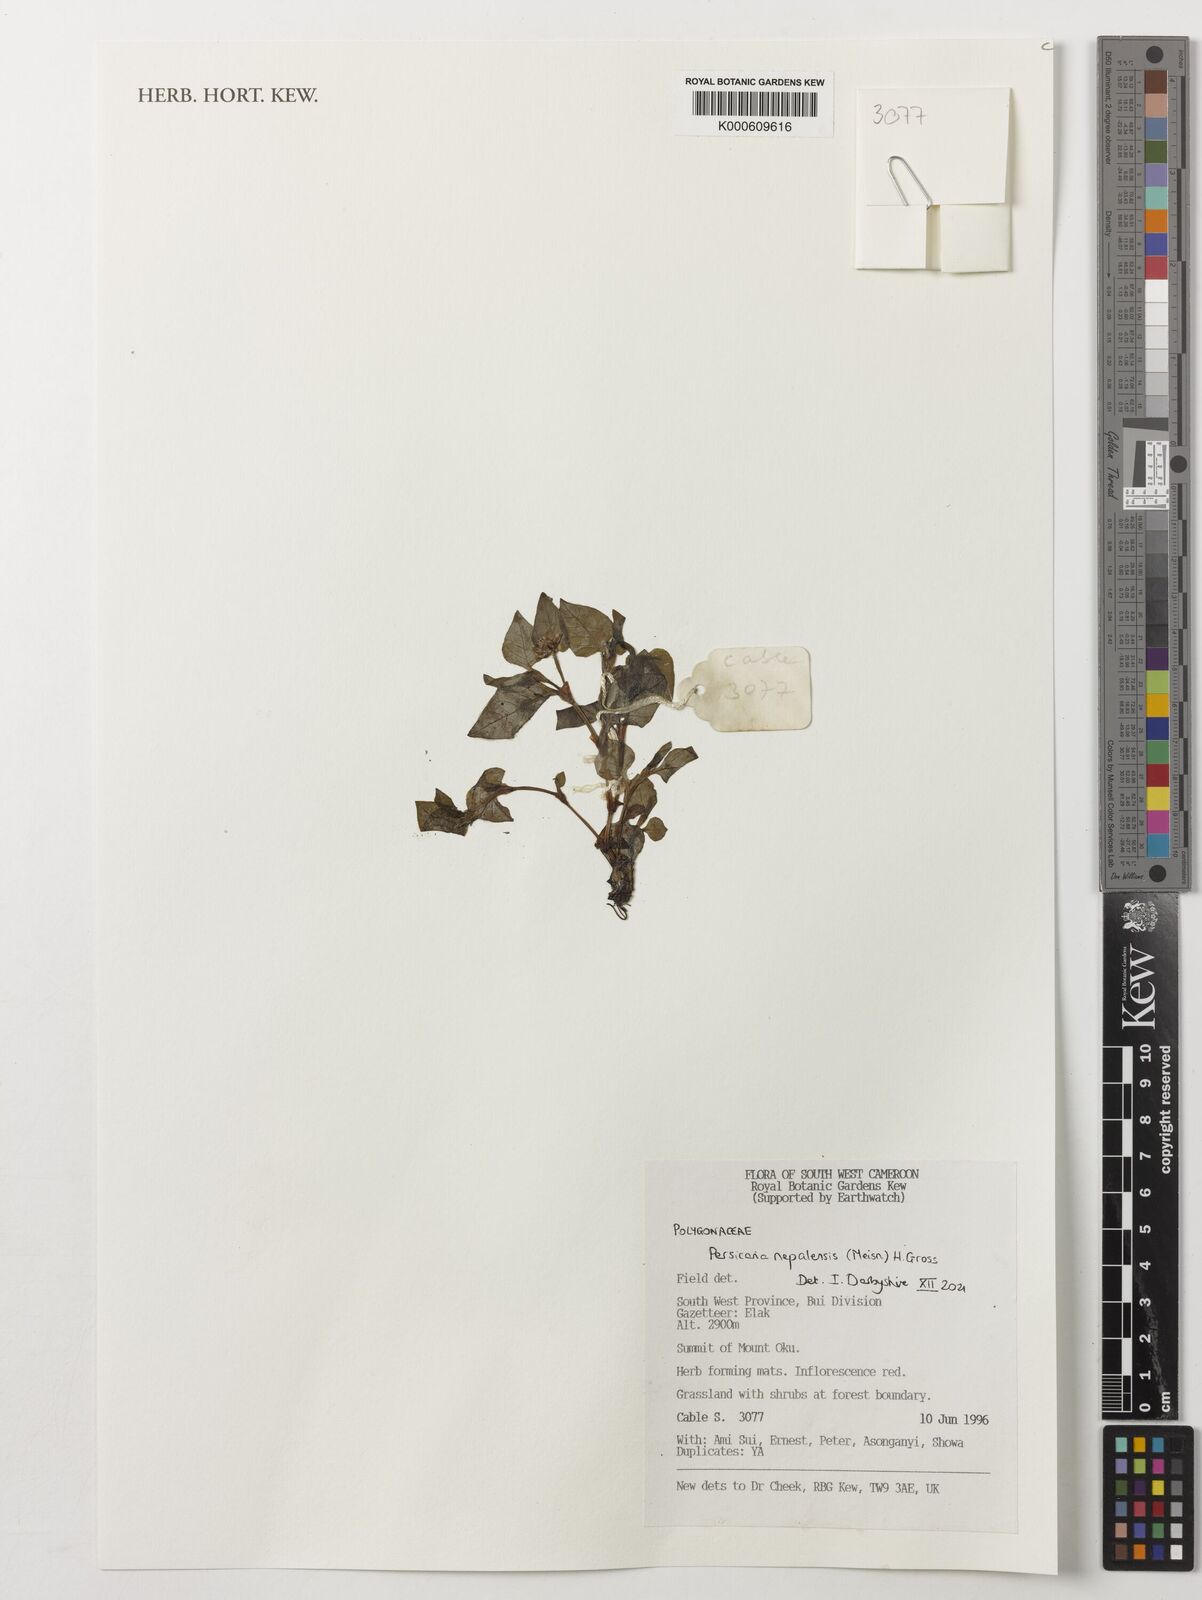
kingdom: Plantae
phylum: Tracheophyta
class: Magnoliopsida
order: Caryophyllales
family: Polygonaceae
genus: Persicaria
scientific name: Persicaria nepalensis
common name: Nepal persicaria
